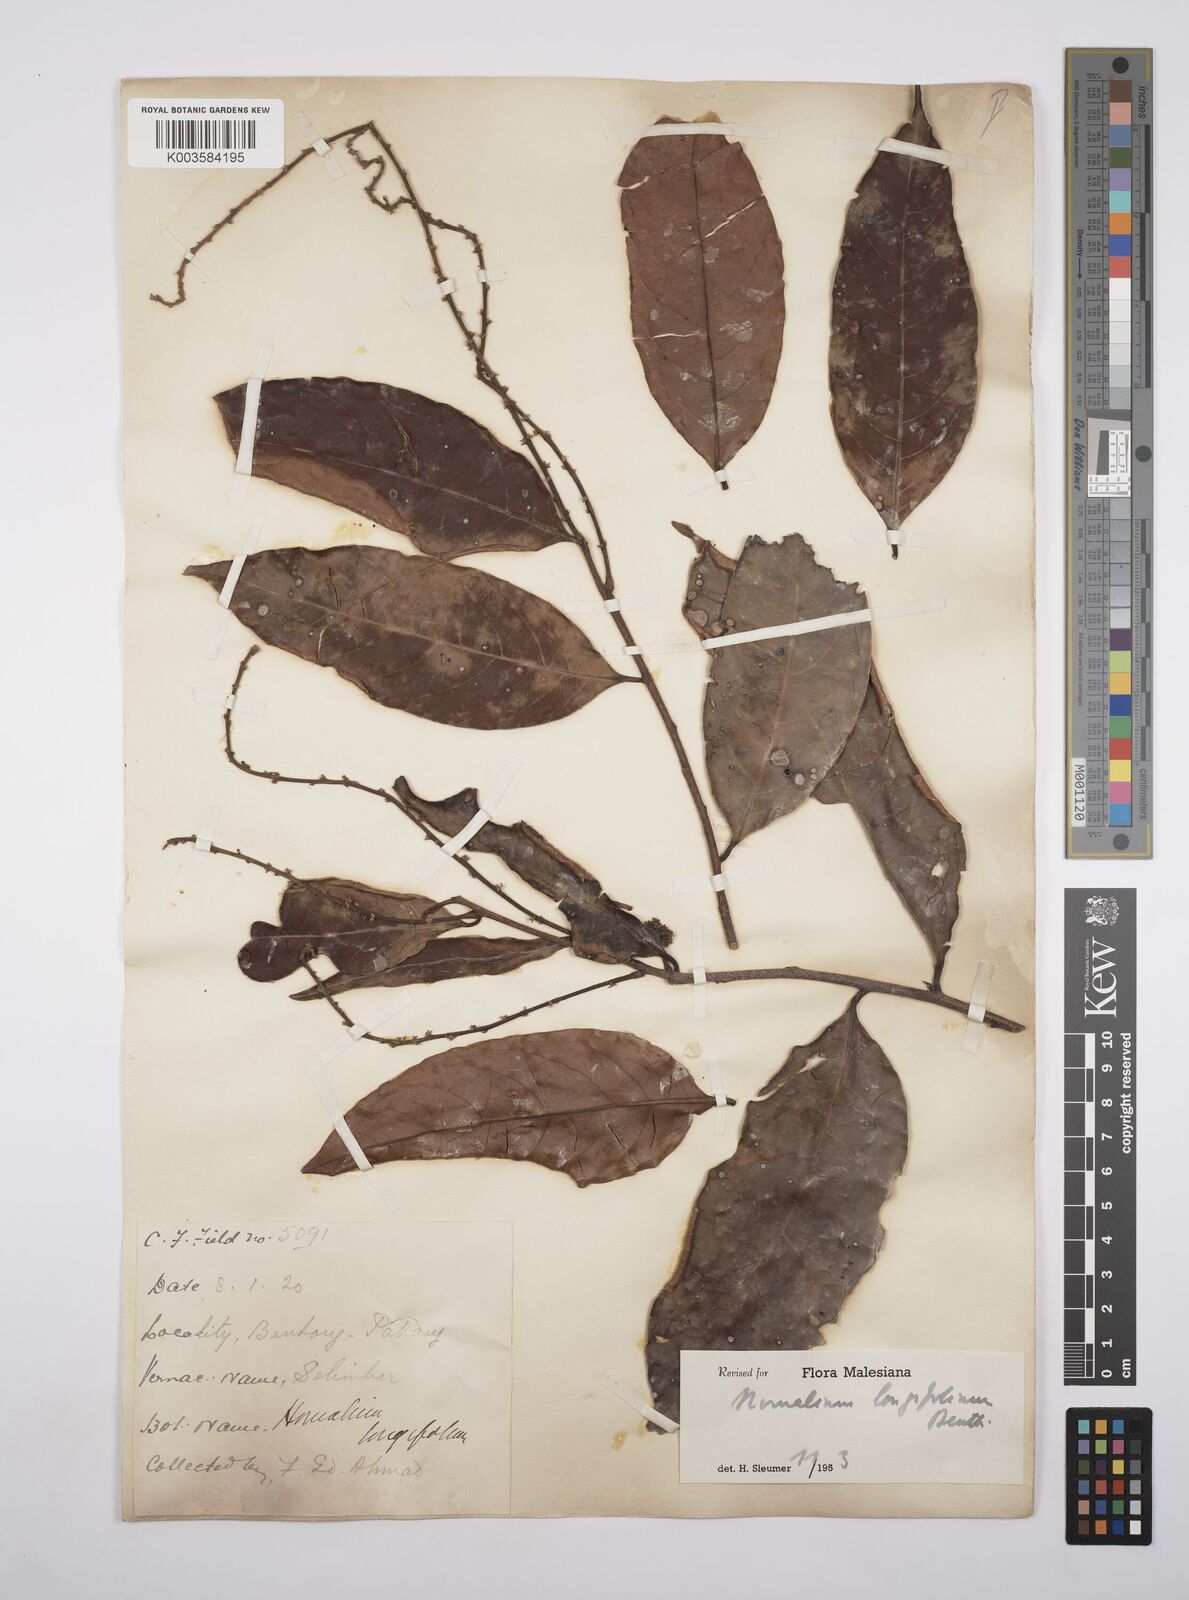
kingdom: Plantae
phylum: Tracheophyta
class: Magnoliopsida
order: Malpighiales
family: Salicaceae
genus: Homalium
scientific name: Homalium longifolium
